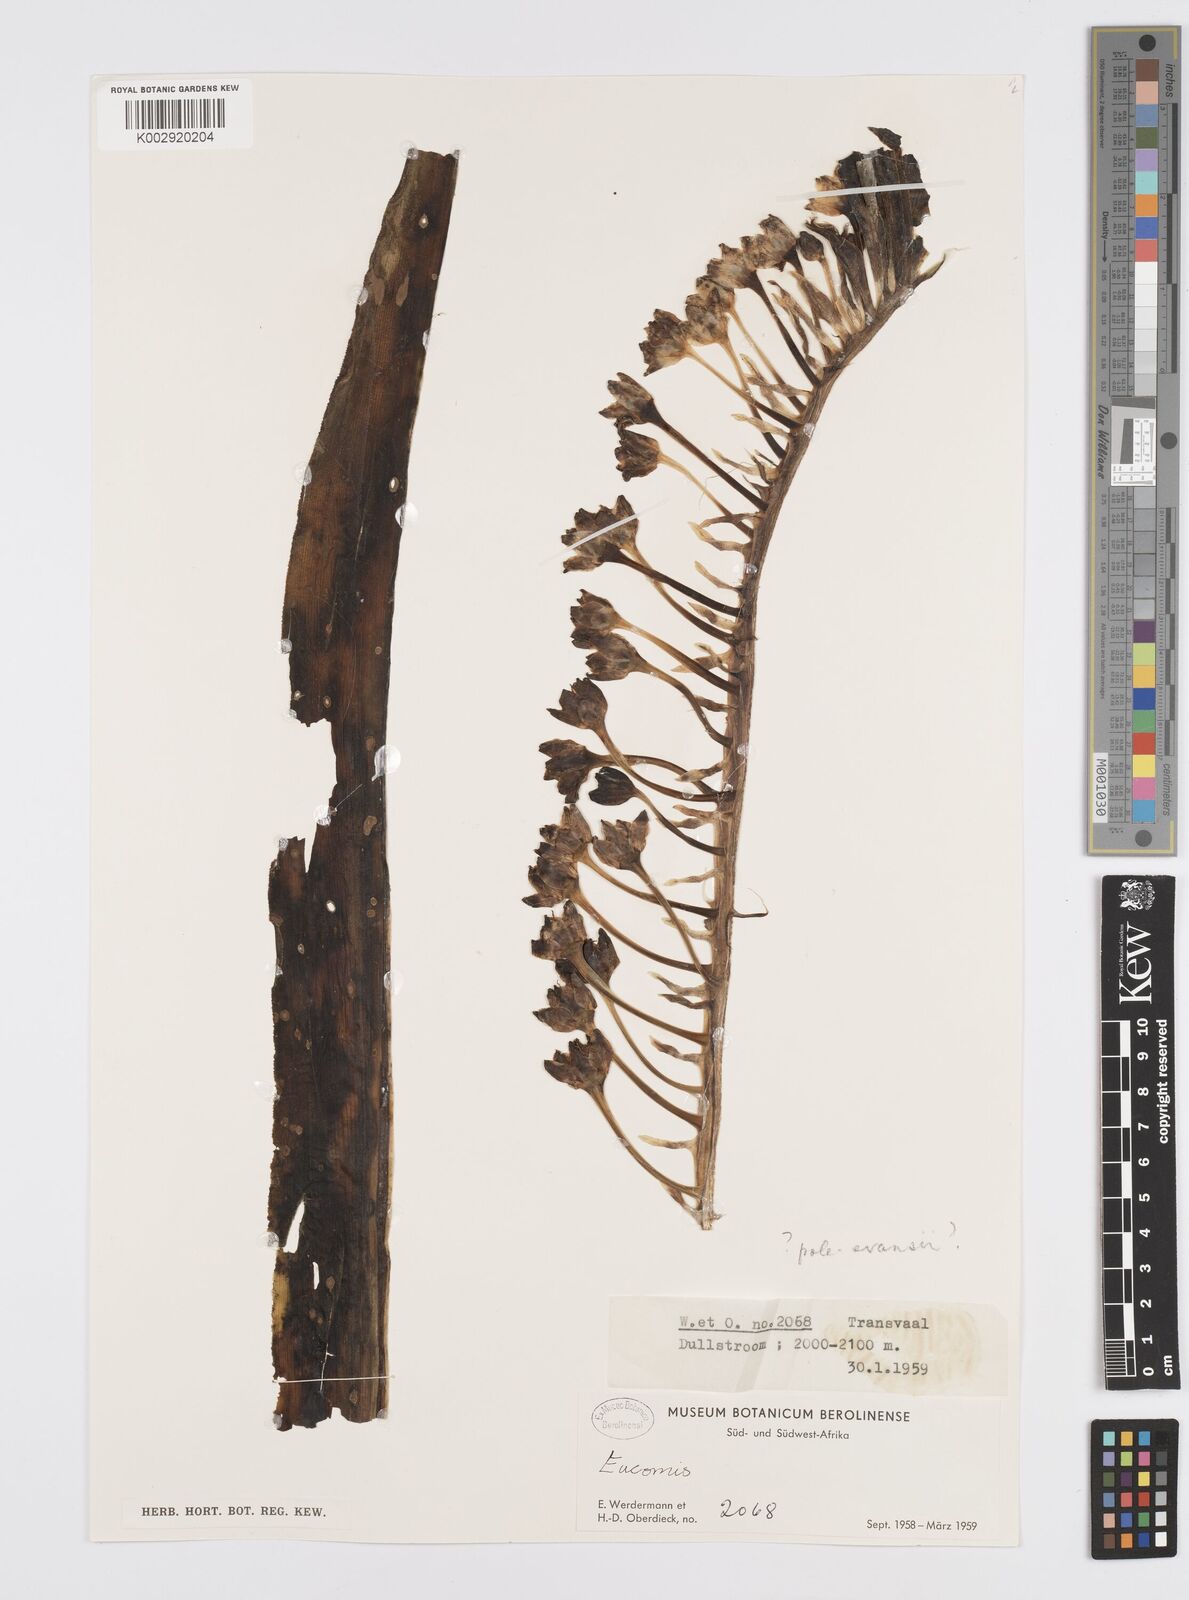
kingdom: Plantae
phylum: Tracheophyta
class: Liliopsida
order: Asparagales
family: Asparagaceae
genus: Eucomis
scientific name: Eucomis
